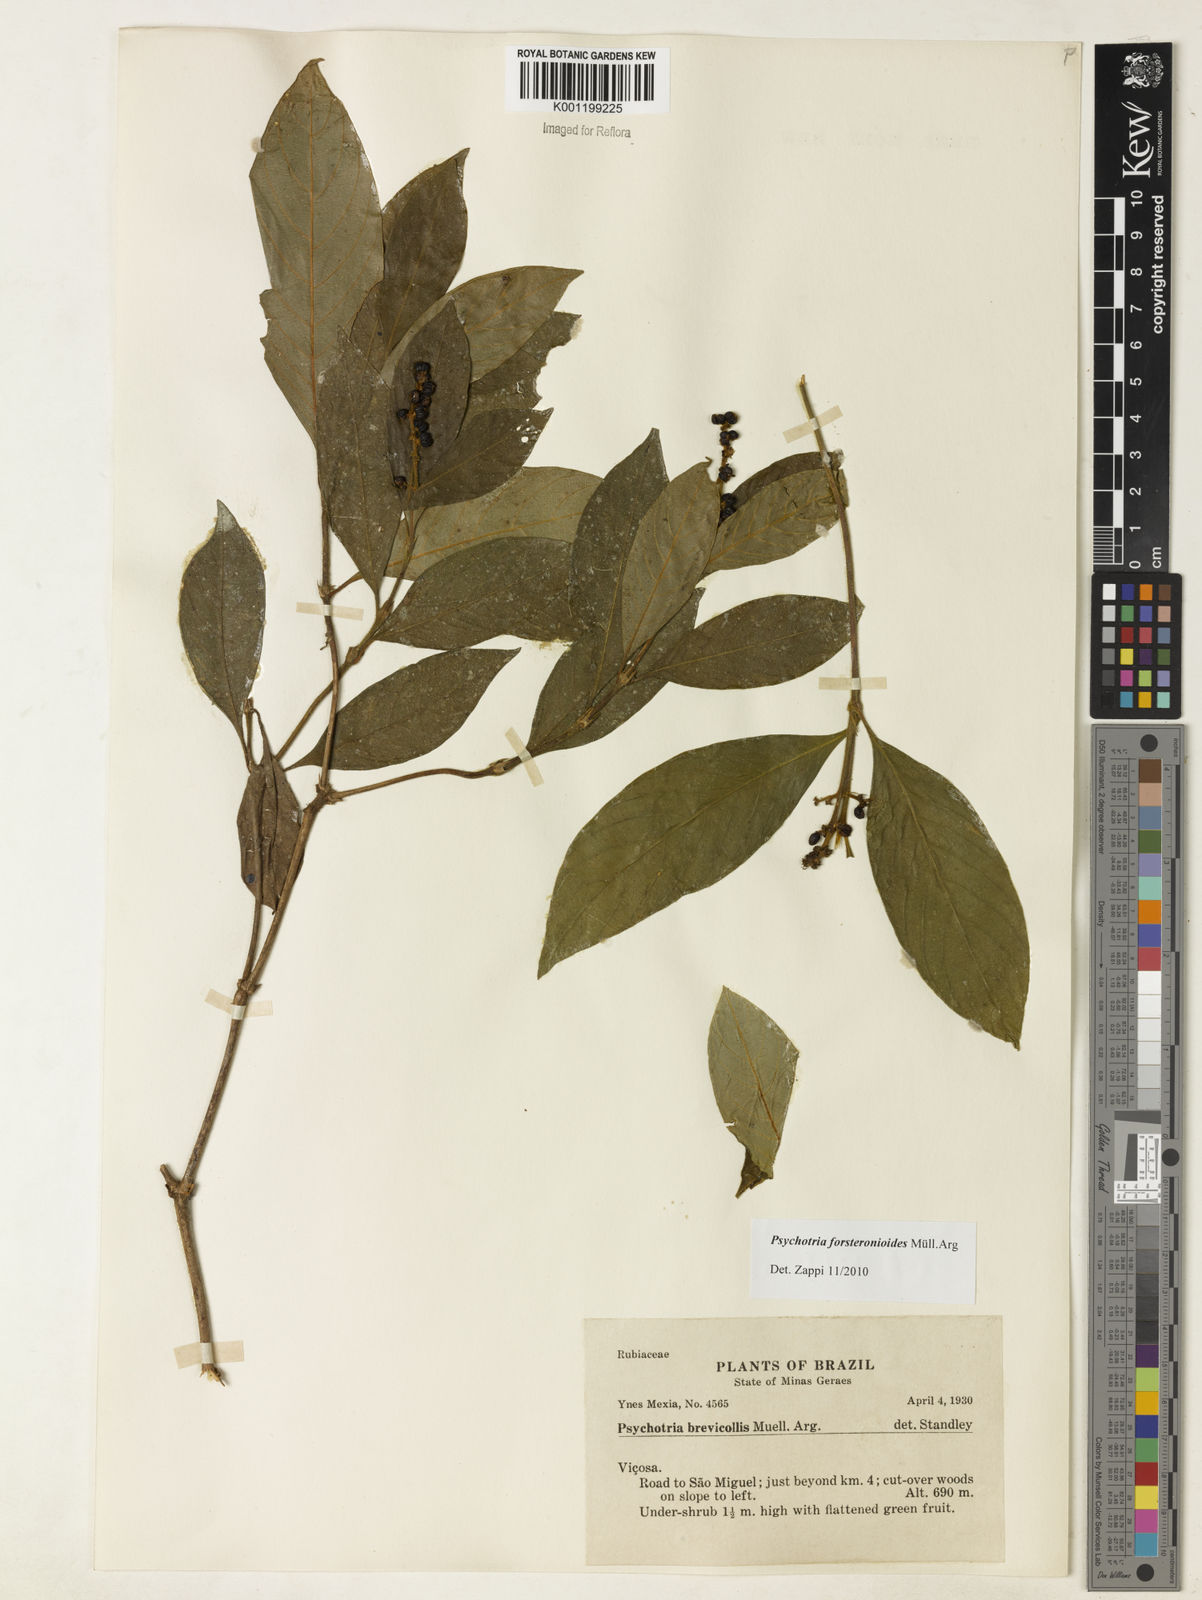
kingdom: Plantae
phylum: Tracheophyta
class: Magnoliopsida
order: Gentianales
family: Rubiaceae
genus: Psychotria
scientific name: Psychotria
